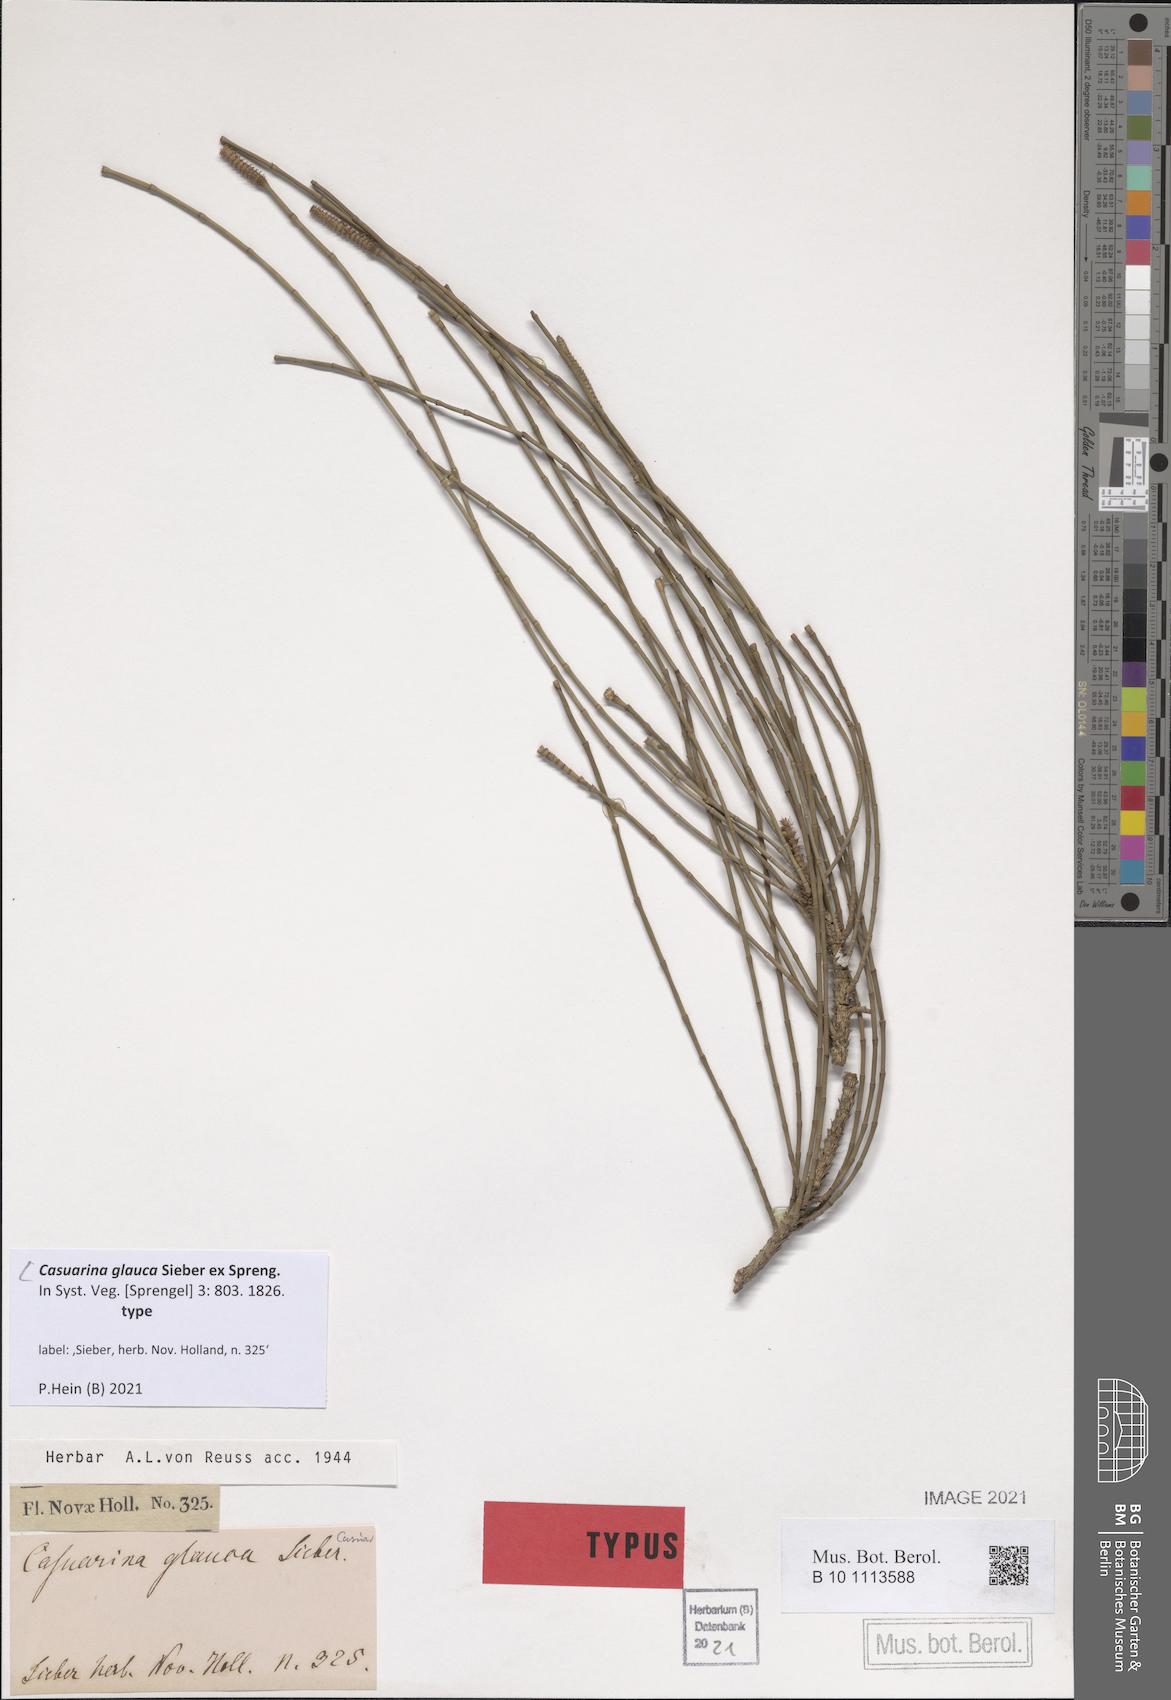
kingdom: Plantae
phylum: Tracheophyta
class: Magnoliopsida
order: Fagales
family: Casuarinaceae
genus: Casuarina
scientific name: Casuarina glauca
